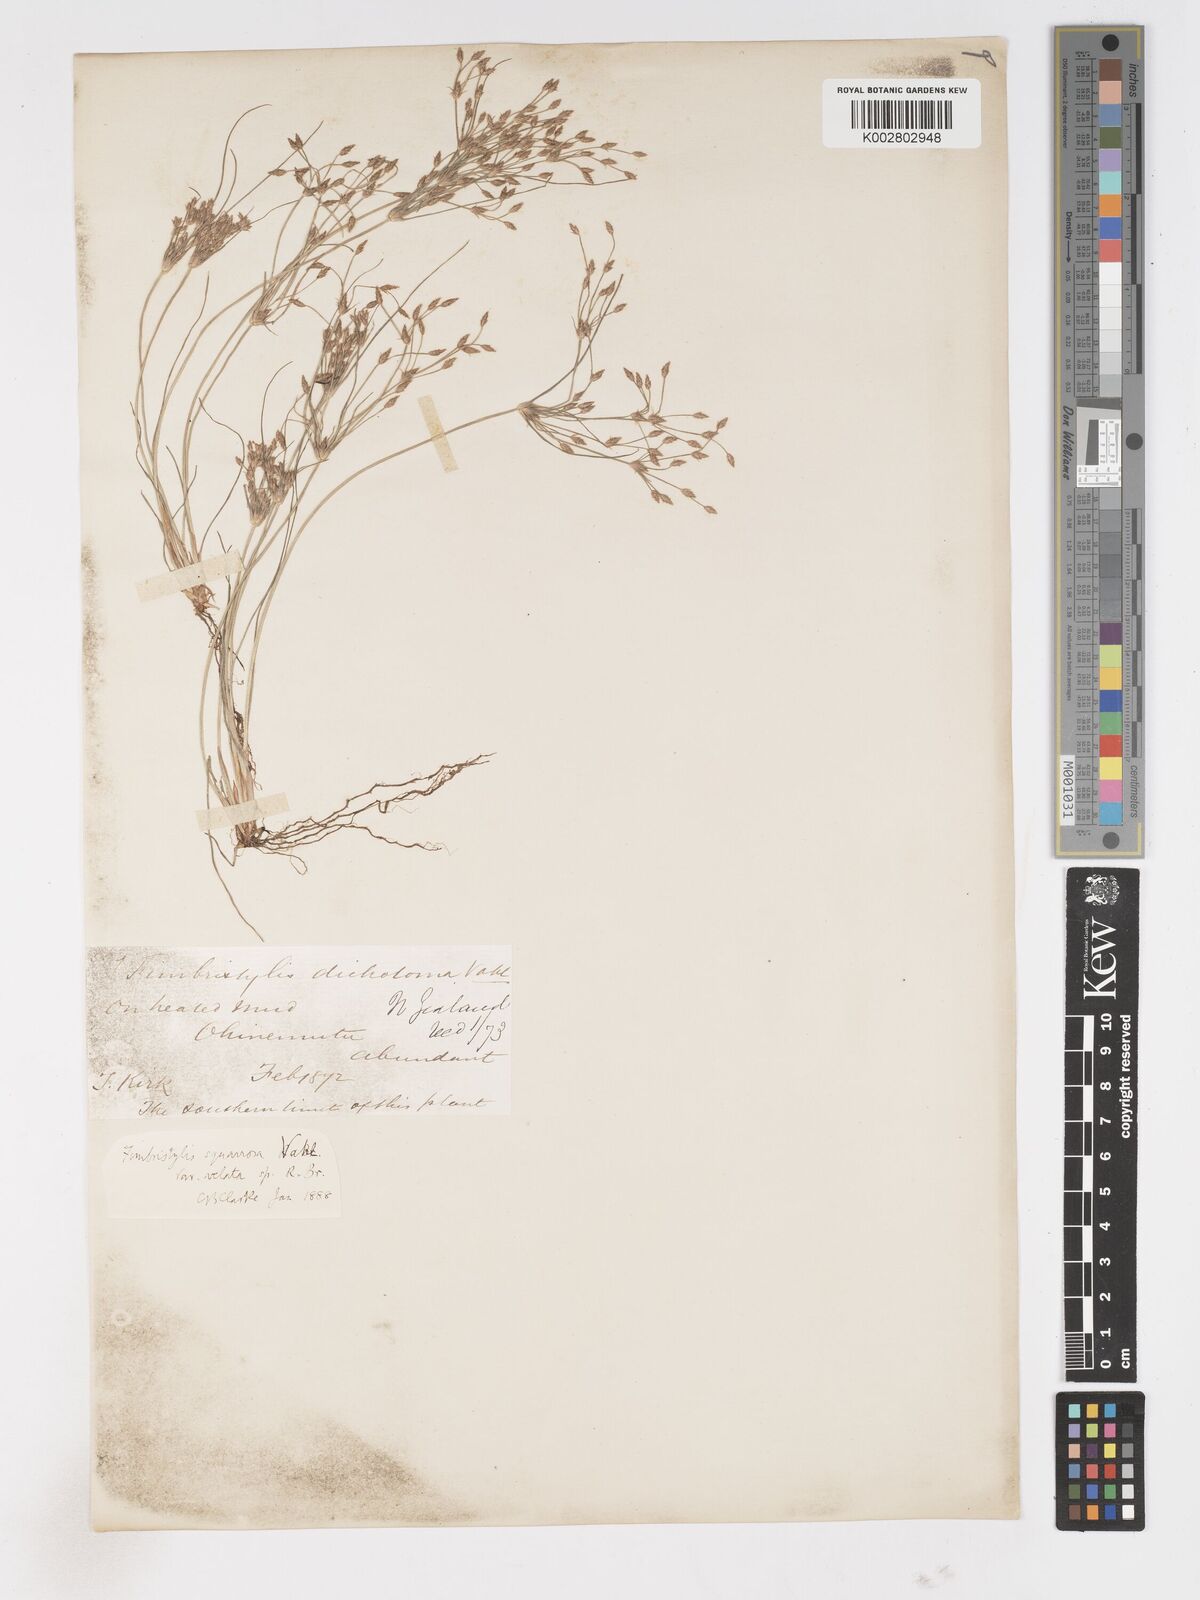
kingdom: Plantae
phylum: Tracheophyta
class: Liliopsida
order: Poales
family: Cyperaceae
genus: Fimbristylis
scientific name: Fimbristylis velata
